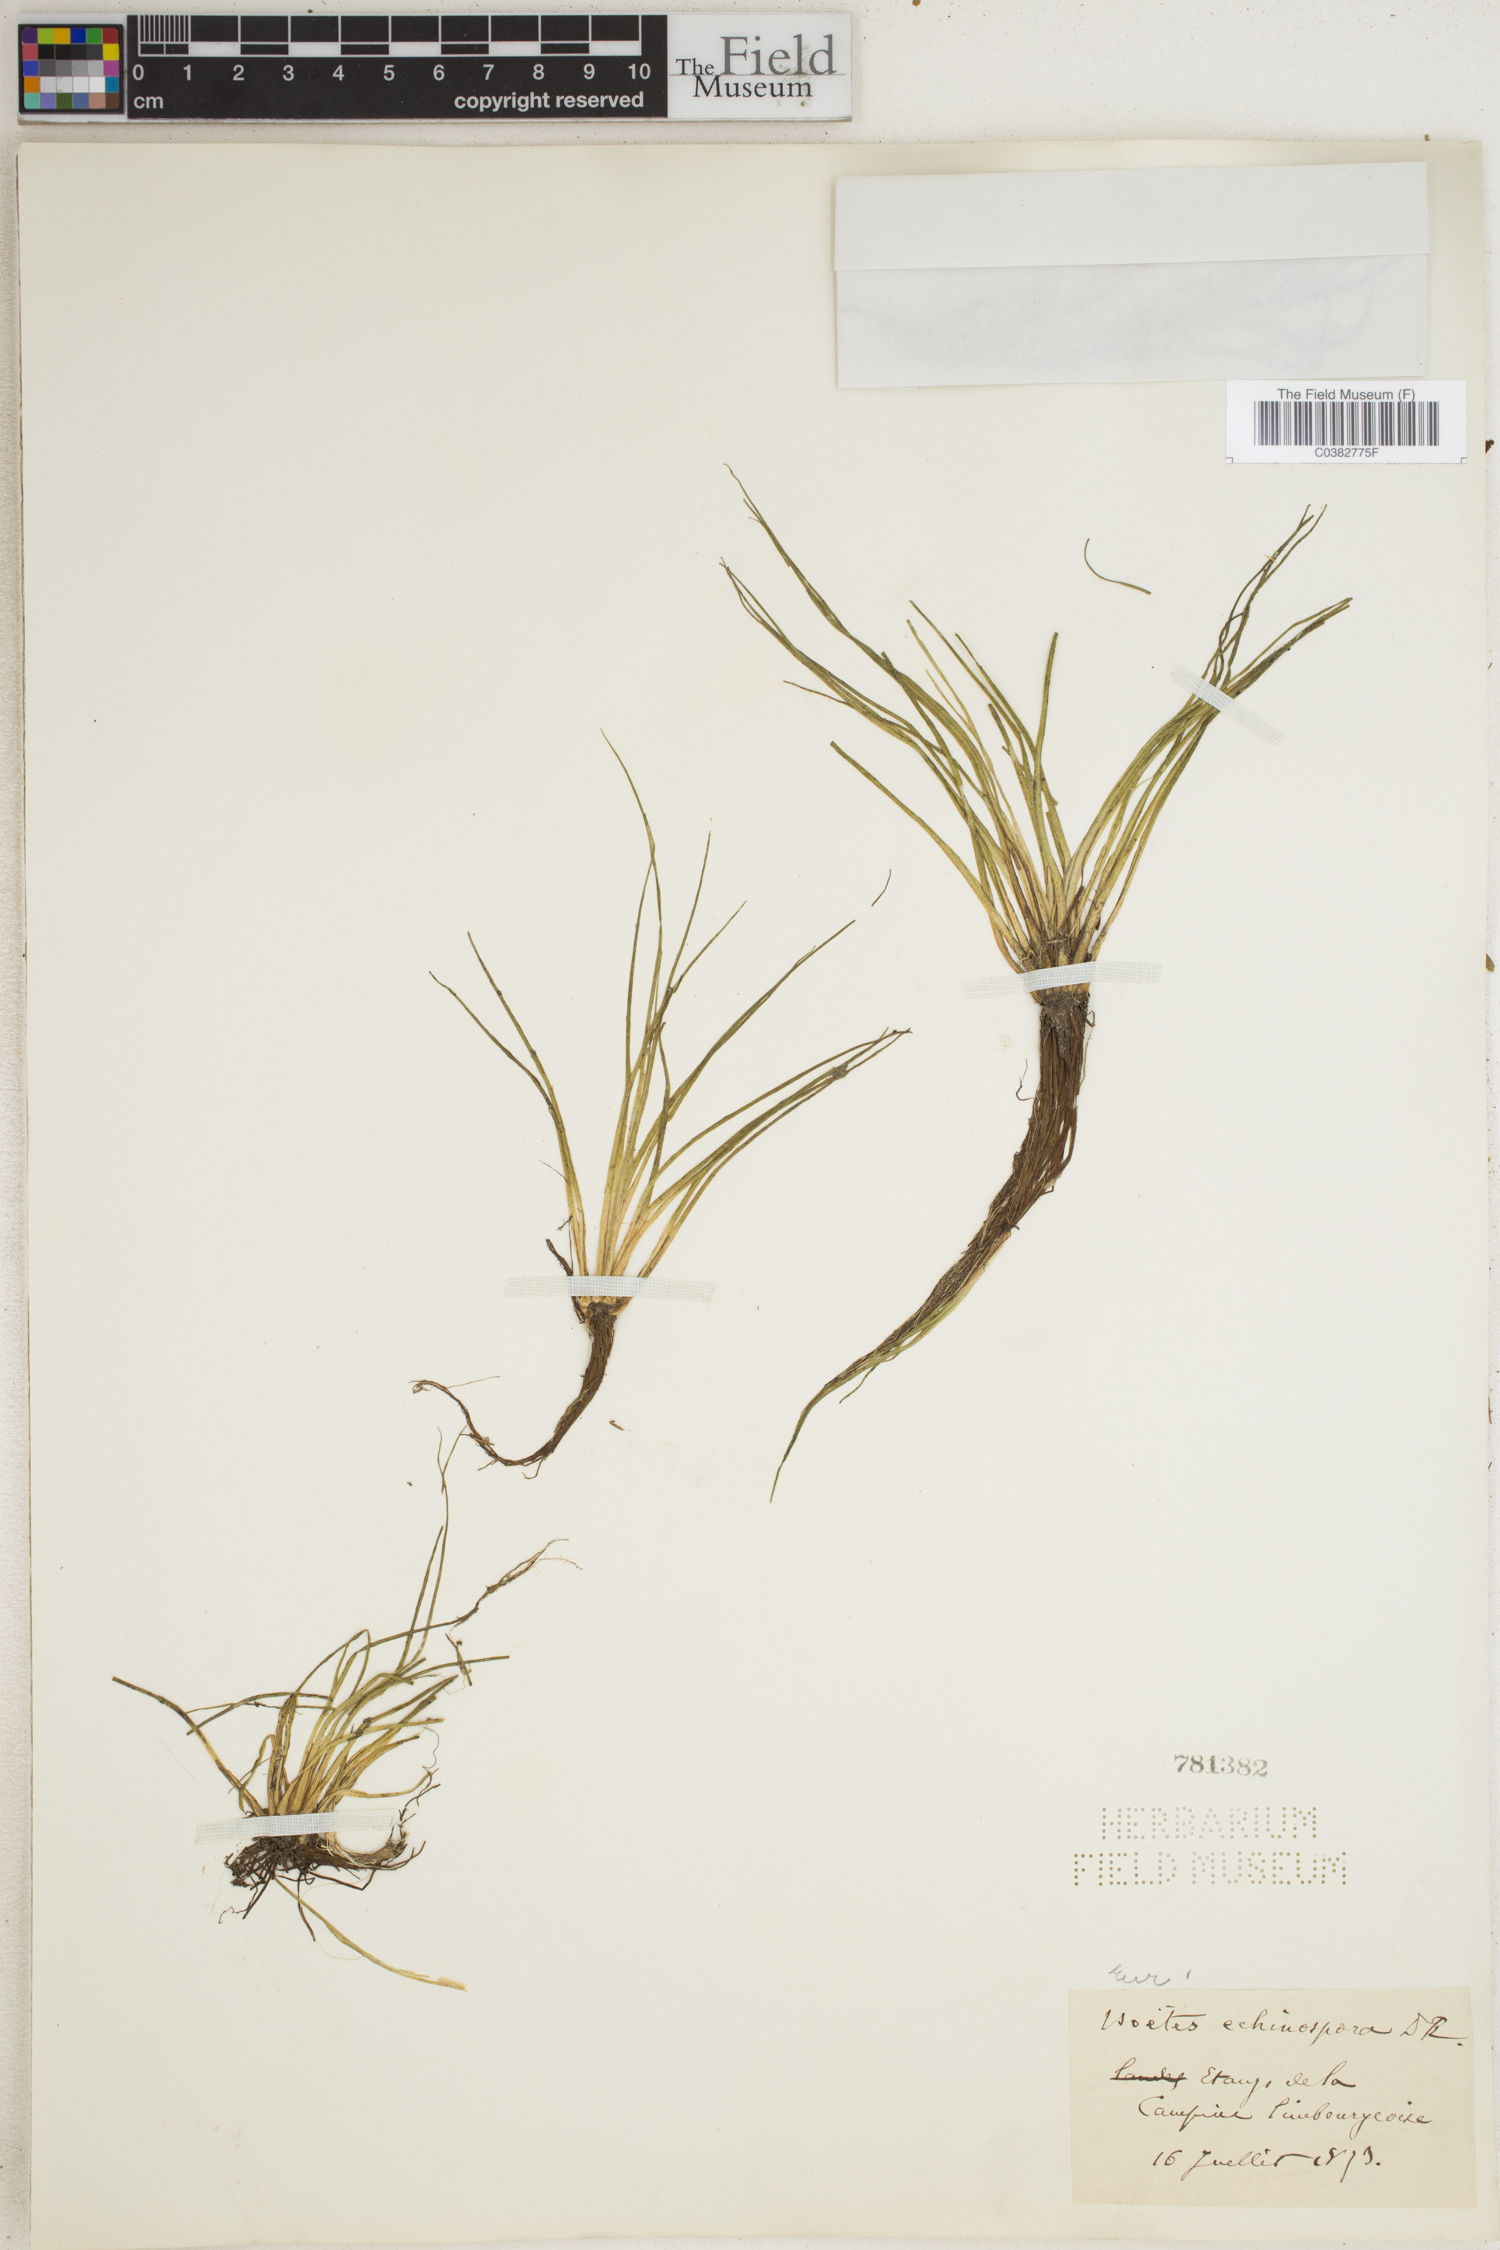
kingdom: Plantae
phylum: Tracheophyta
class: Lycopodiopsida
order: Isoetales
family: Isoetaceae
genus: Isoetes
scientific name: Isoetes echinospora
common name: Spring quillwort
